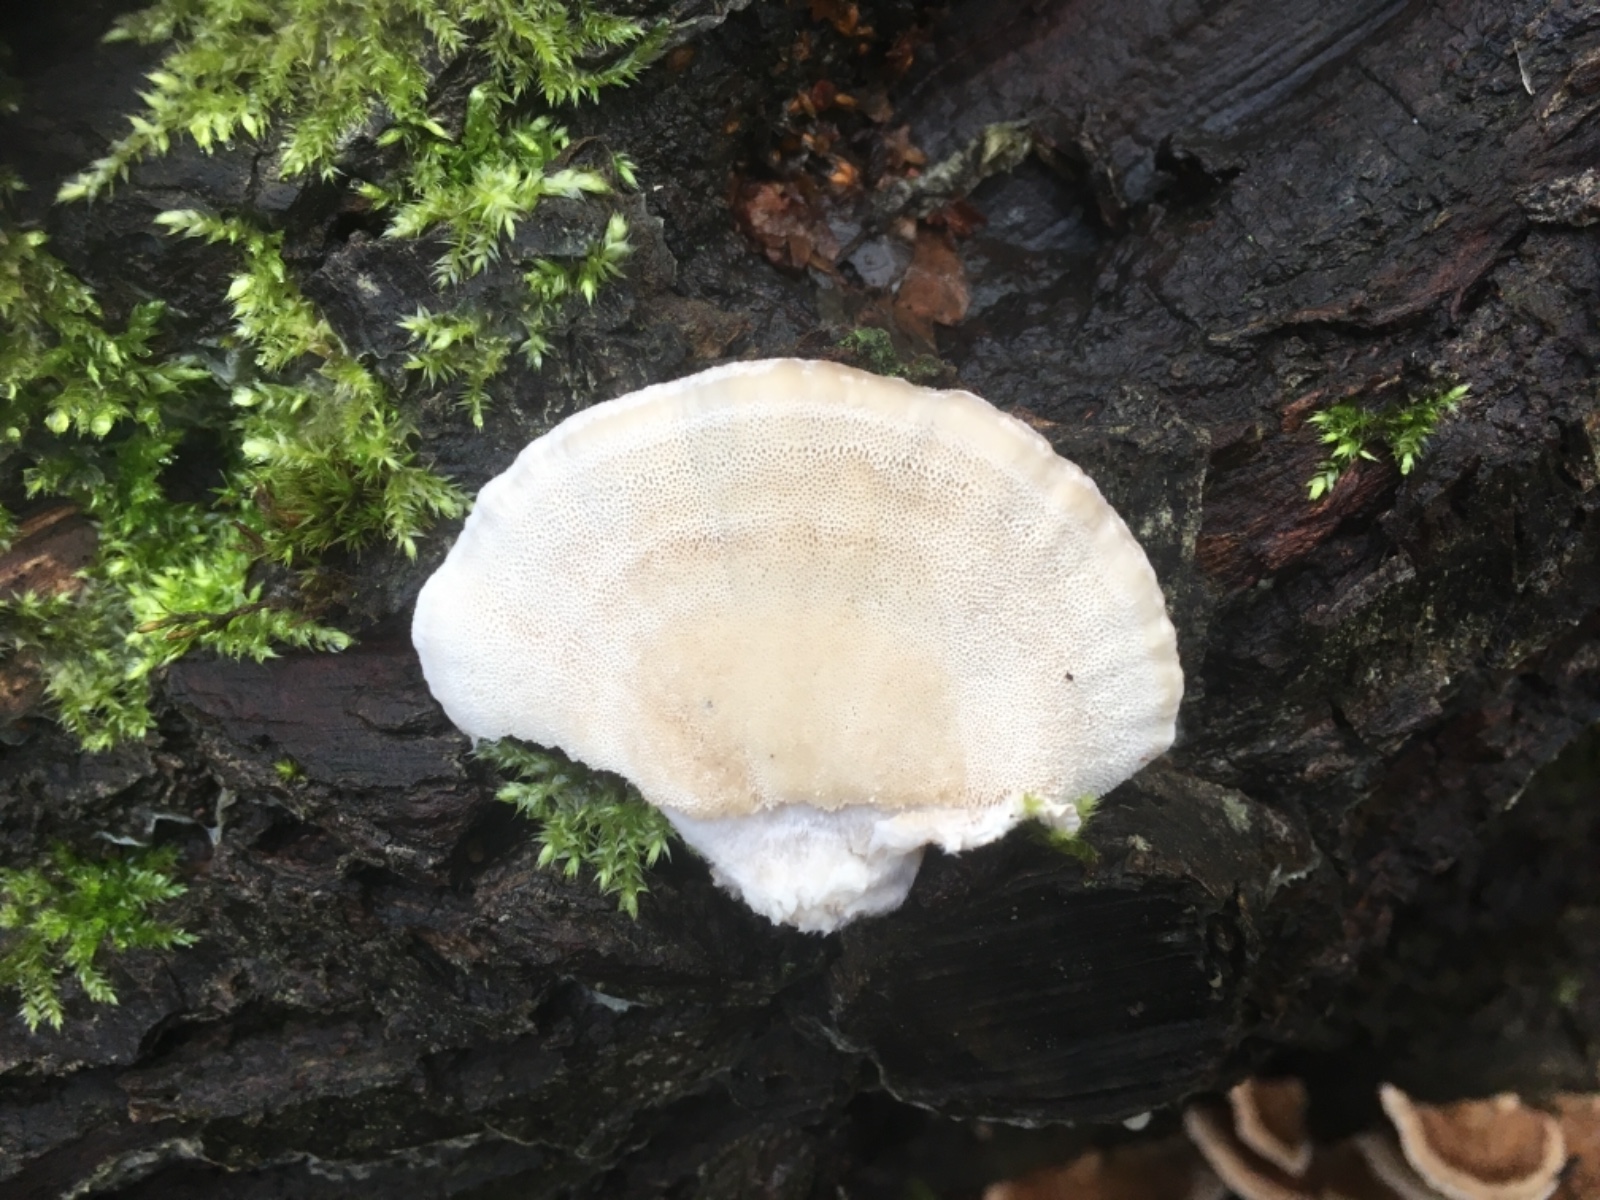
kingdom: Fungi
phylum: Basidiomycota
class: Agaricomycetes
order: Polyporales
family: Polyporaceae
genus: Trametes
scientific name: Trametes versicolor
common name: broget læderporesvamp
